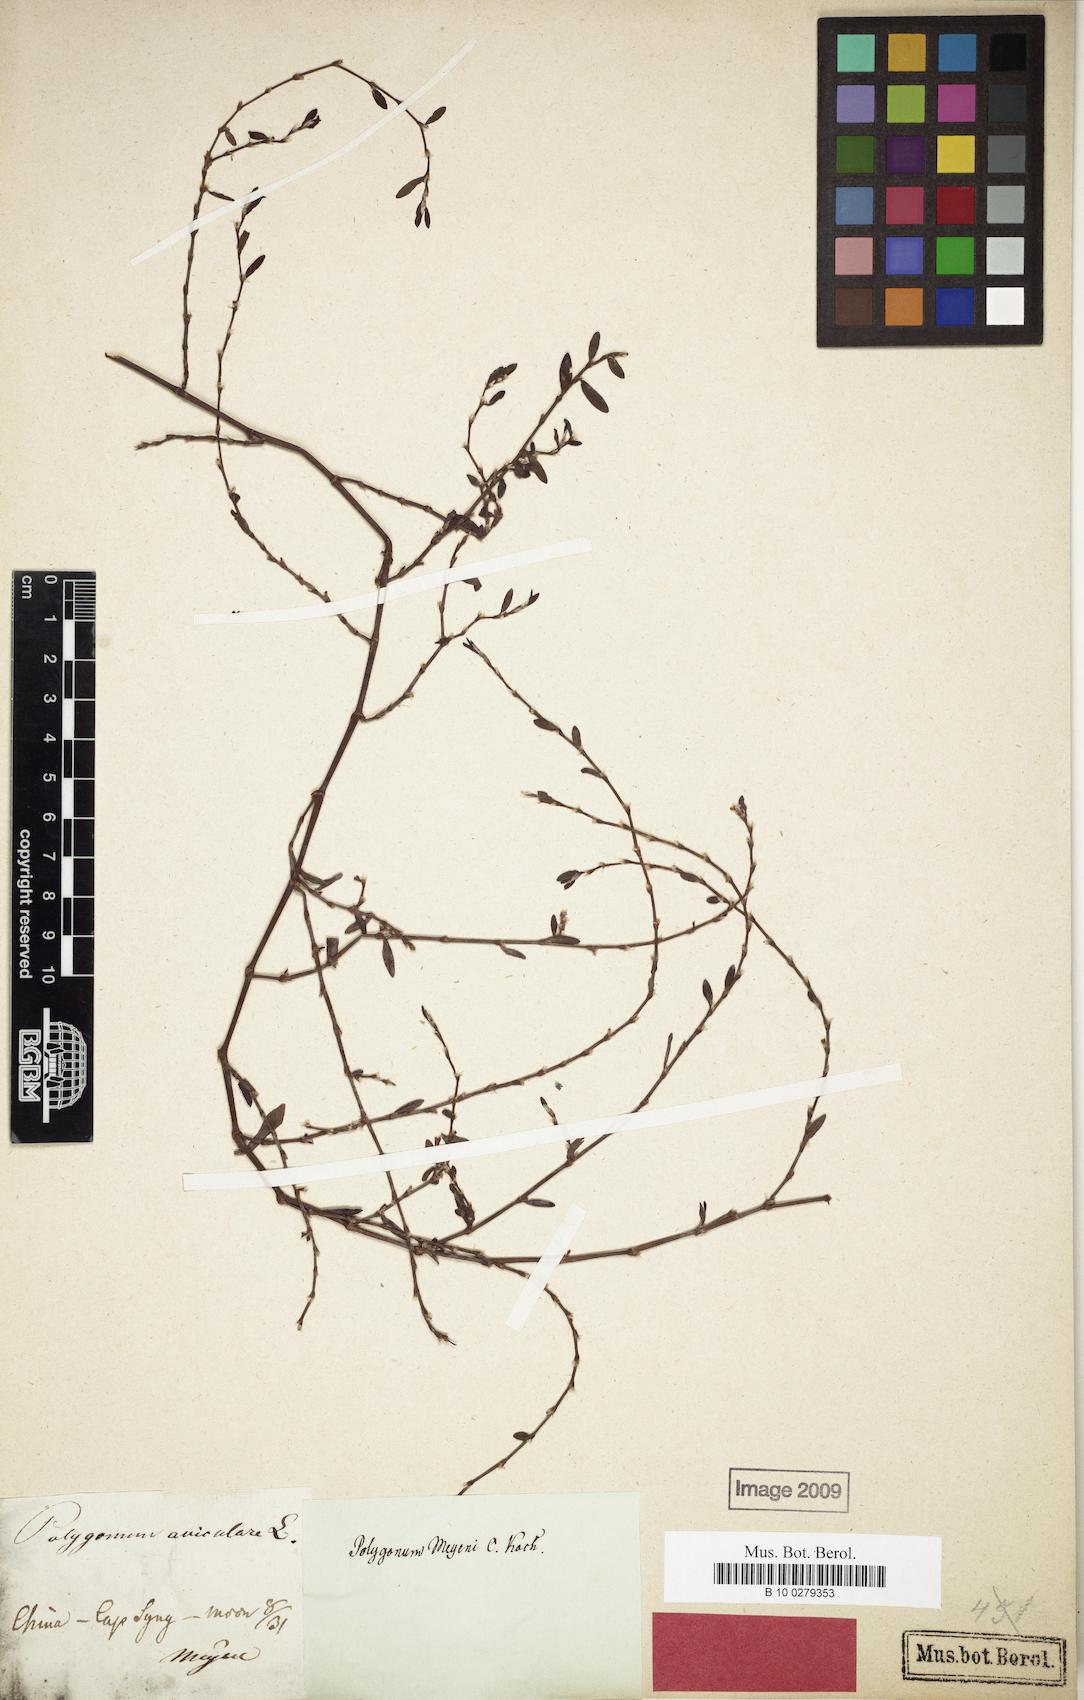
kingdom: Plantae
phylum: Tracheophyta
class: Magnoliopsida
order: Caryophyllales
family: Polygonaceae
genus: Polygonum
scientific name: Polygonum aviculare
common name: Prostrate knotweed
